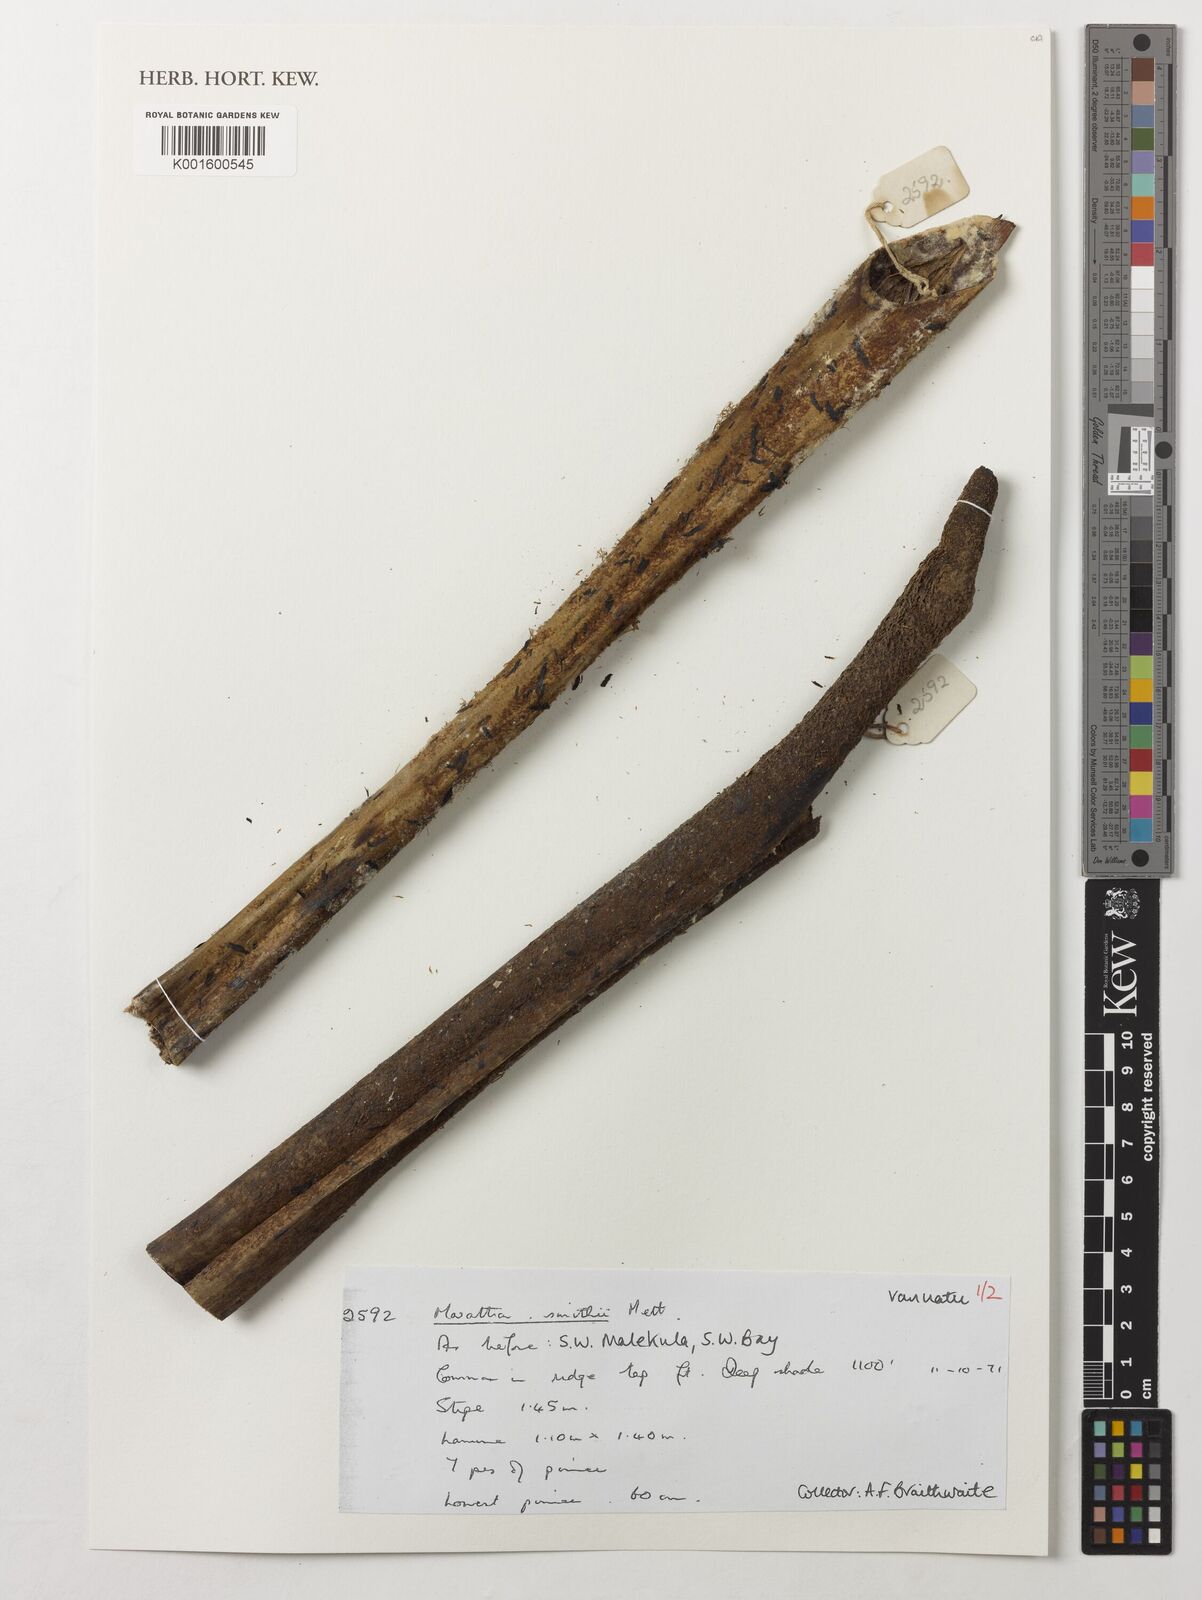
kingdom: Plantae
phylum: Tracheophyta
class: Polypodiopsida
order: Marattiales
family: Marattiaceae
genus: Ptisana
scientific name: Ptisana smithii
